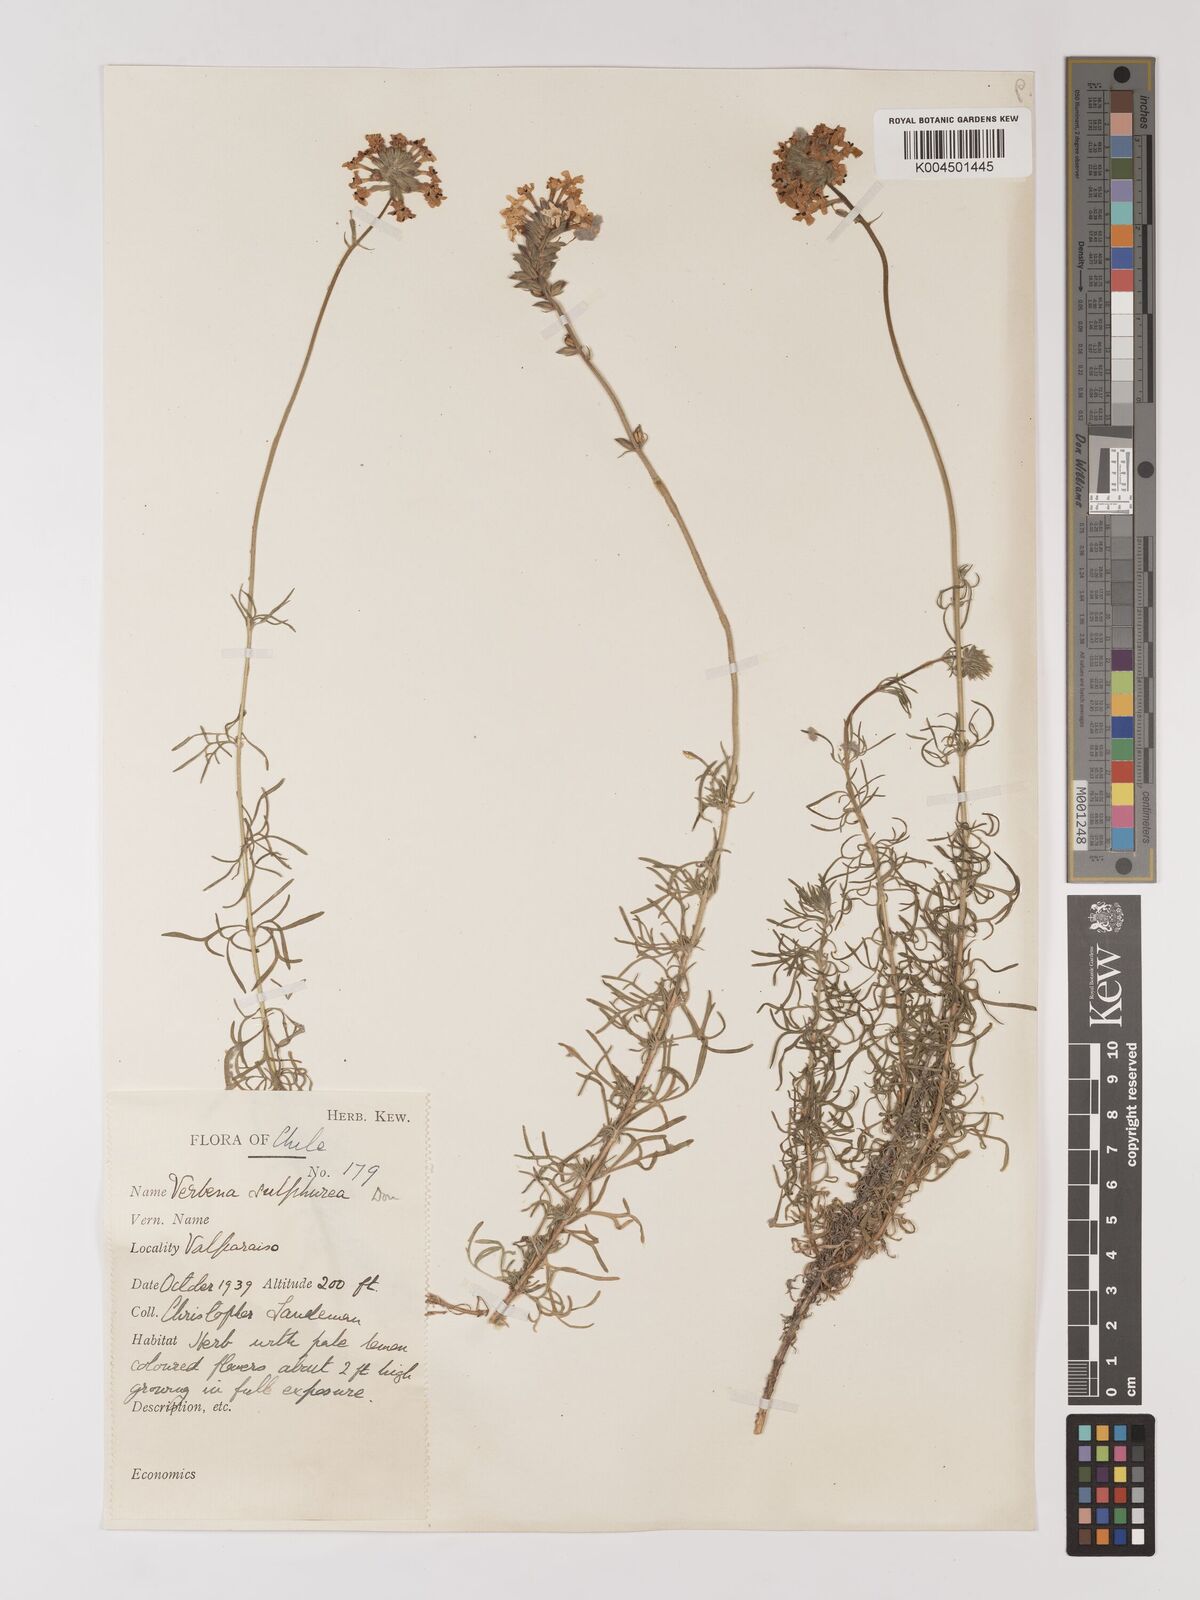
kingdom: Plantae
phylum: Tracheophyta
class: Magnoliopsida
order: Lamiales
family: Verbenaceae
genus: Verbena
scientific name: Verbena sulphurea
